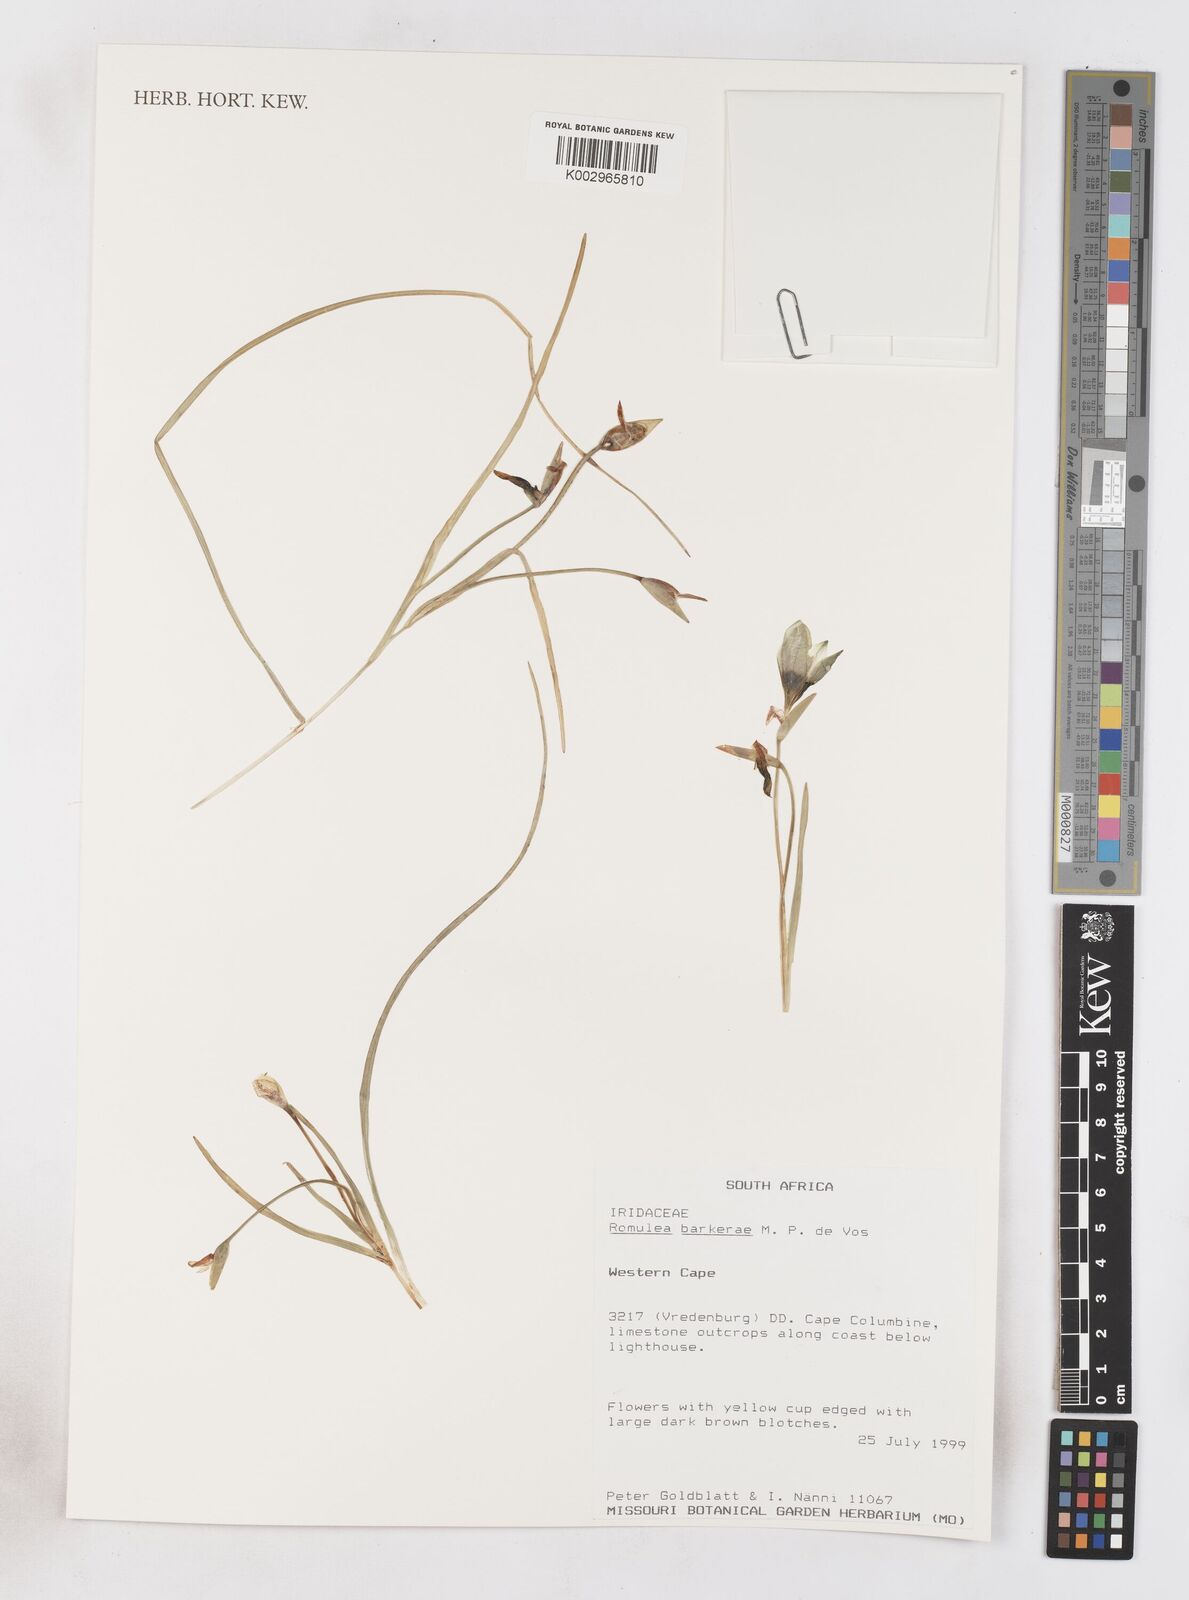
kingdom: Plantae
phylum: Tracheophyta
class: Liliopsida
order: Asparagales
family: Iridaceae
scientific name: Iridaceae
